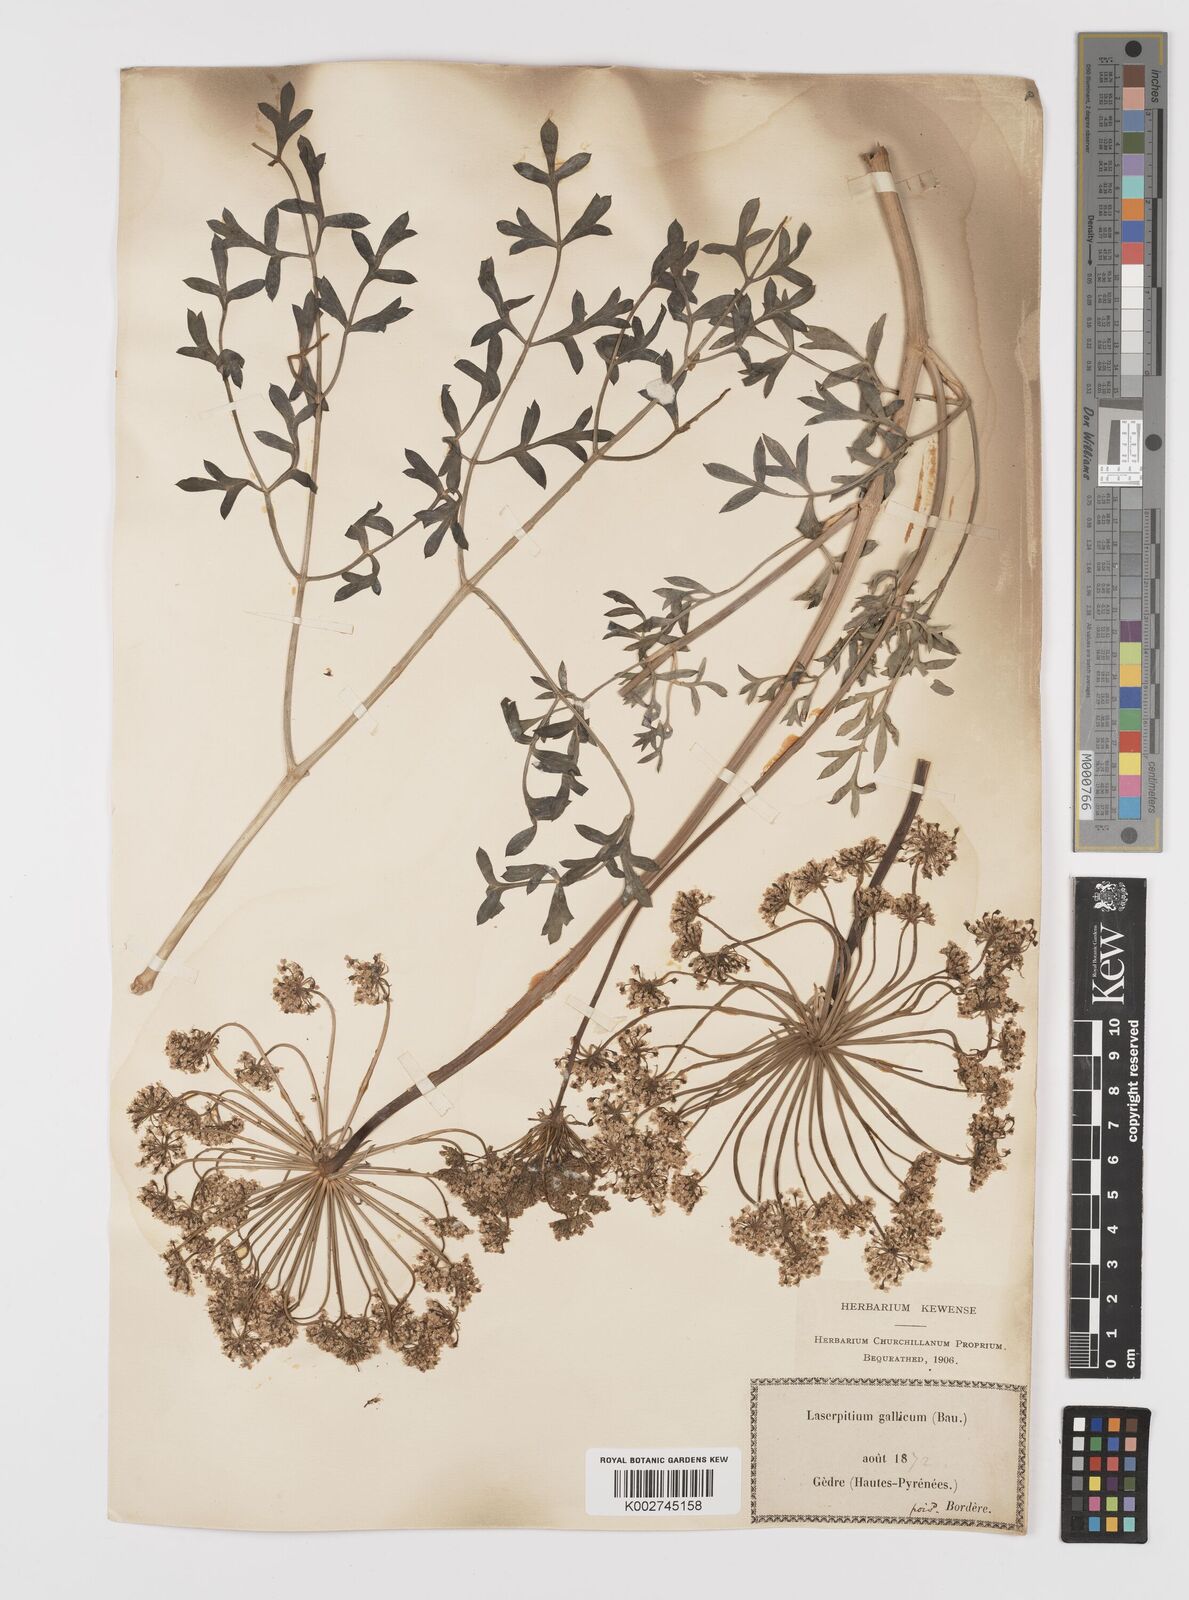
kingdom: Plantae
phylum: Tracheophyta
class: Magnoliopsida
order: Apiales
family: Apiaceae
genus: Laserpitium
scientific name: Laserpitium gallicum
